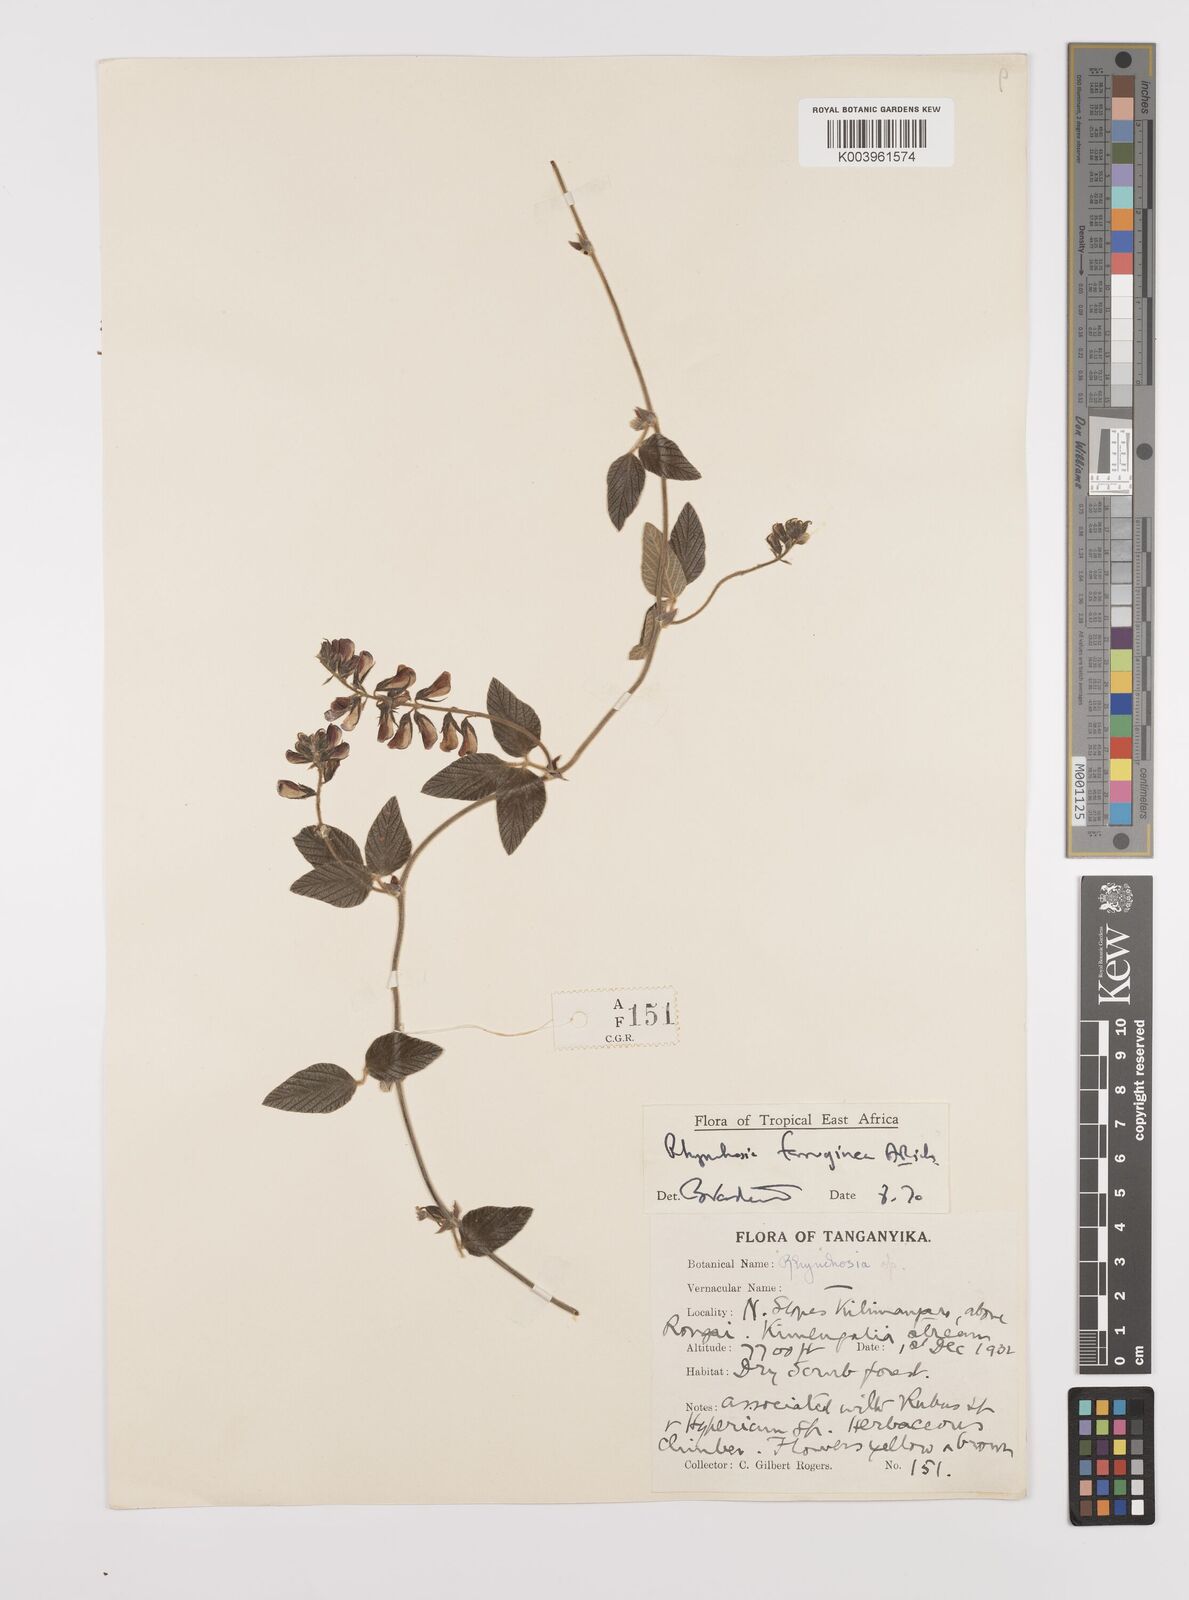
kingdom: Plantae
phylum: Tracheophyta
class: Magnoliopsida
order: Fabales
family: Fabaceae
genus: Rhynchosia
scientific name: Rhynchosia ferruginea
